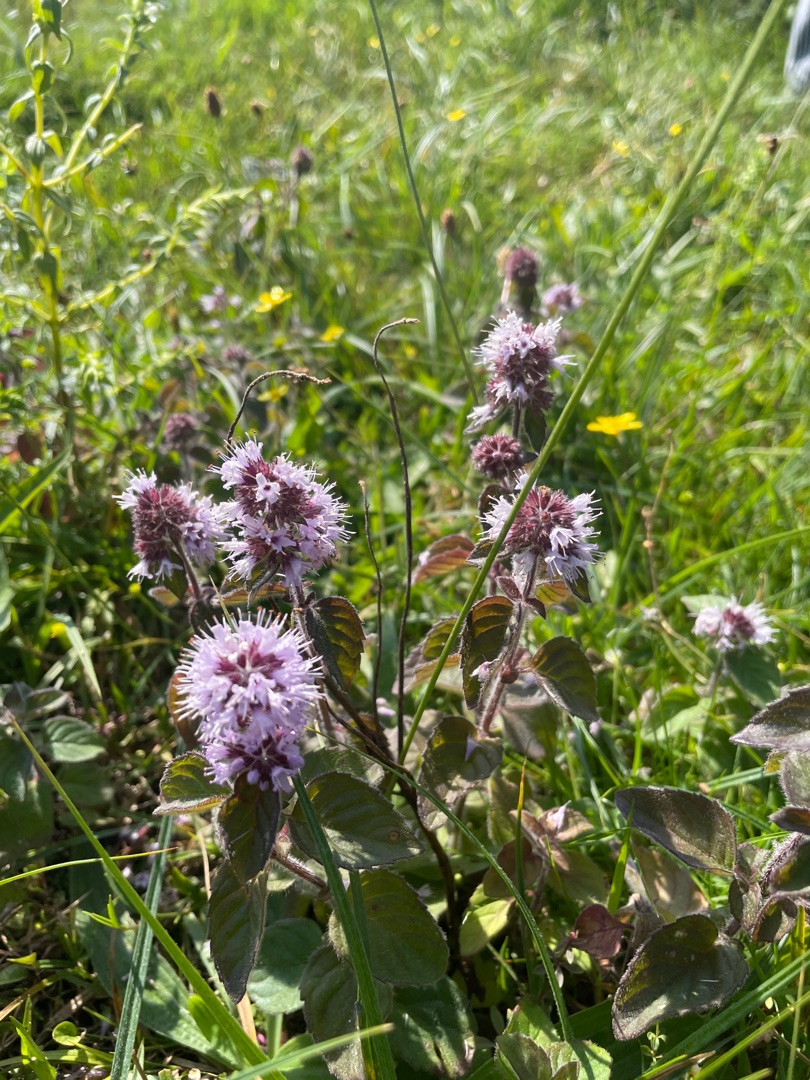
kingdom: Plantae
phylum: Tracheophyta
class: Magnoliopsida
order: Lamiales
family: Lamiaceae
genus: Mentha
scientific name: Mentha aquatica
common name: Vand-mynte
